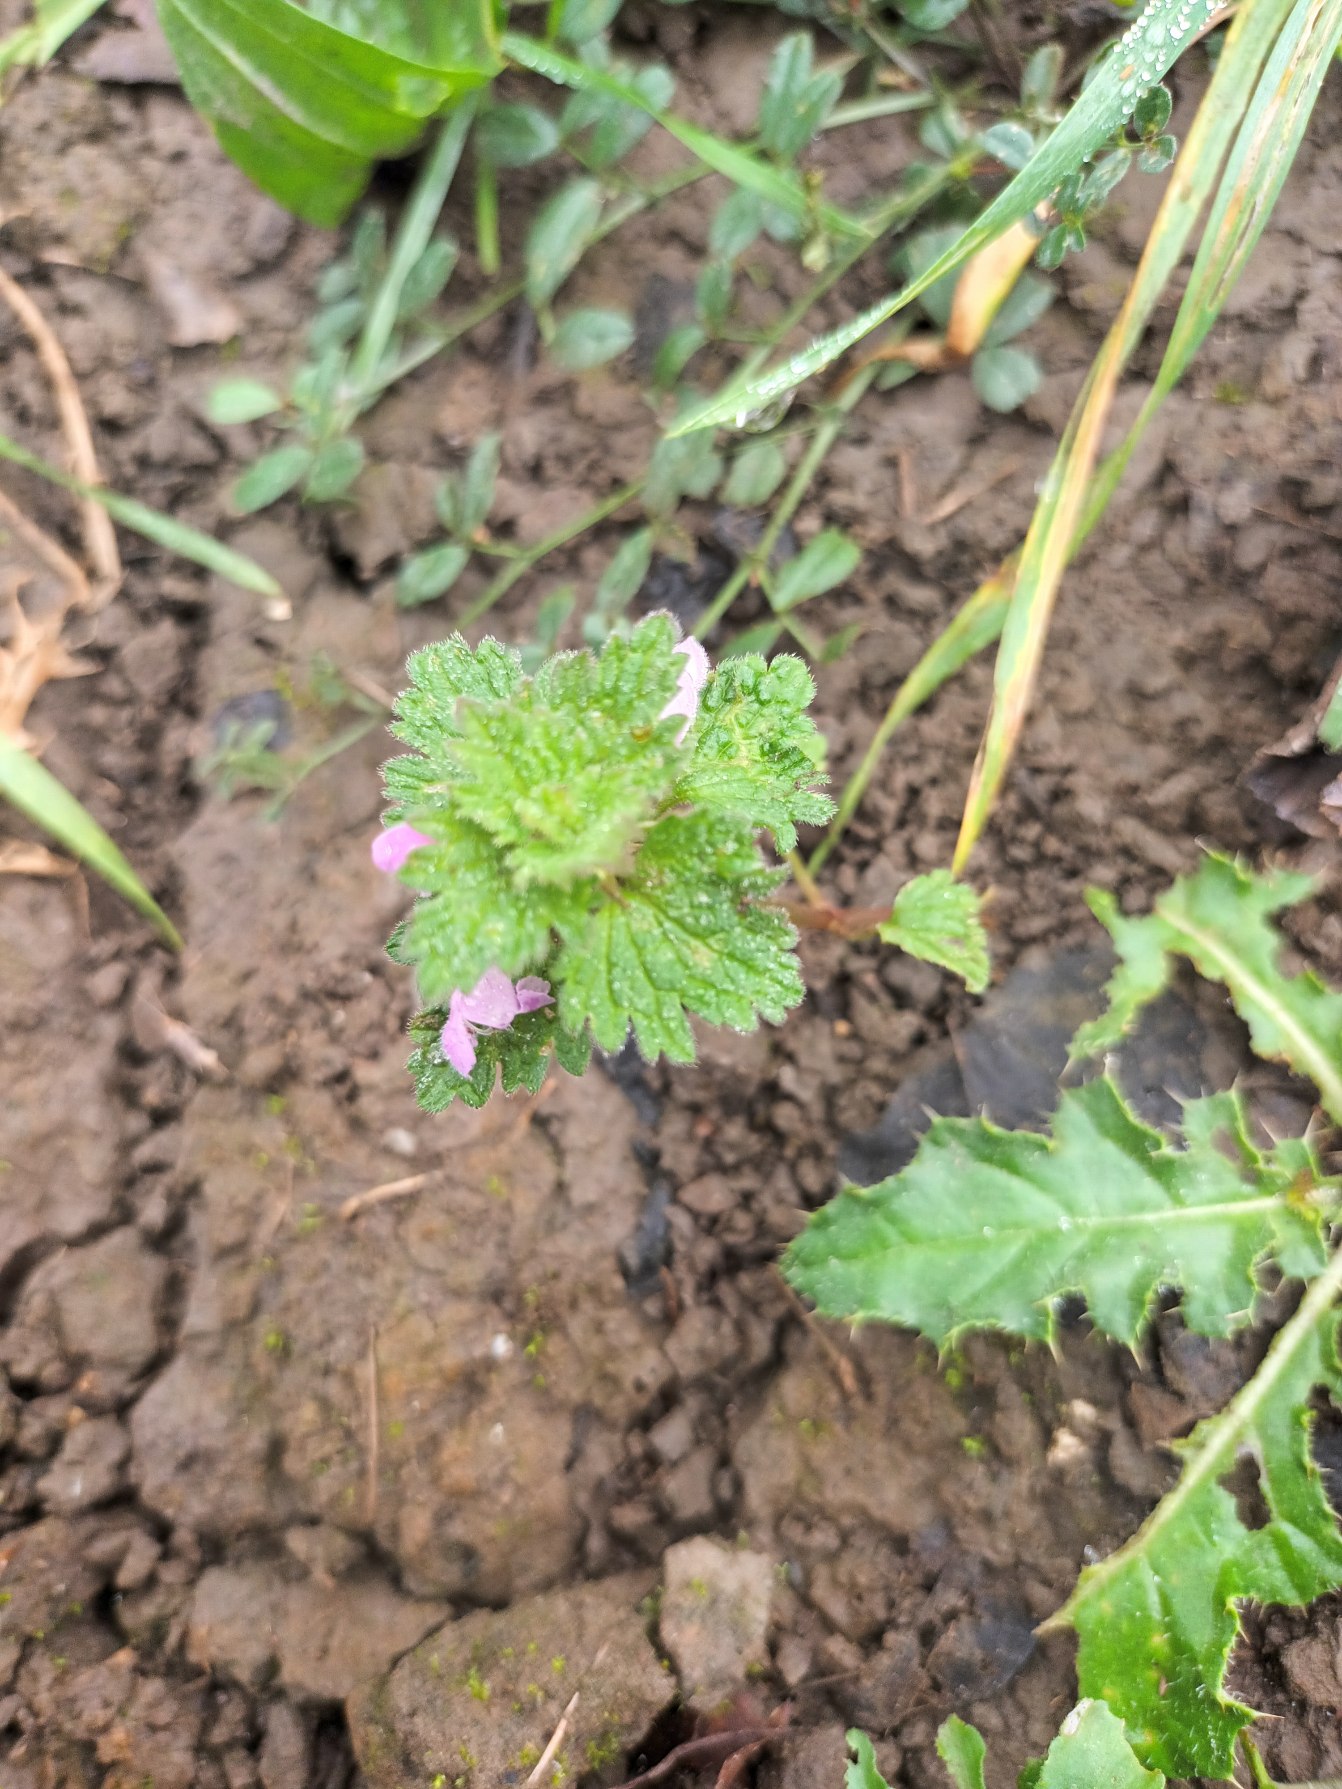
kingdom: Plantae
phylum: Tracheophyta
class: Magnoliopsida
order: Lamiales
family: Lamiaceae
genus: Lamium
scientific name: Lamium hybridum
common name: Fliget tvetand
